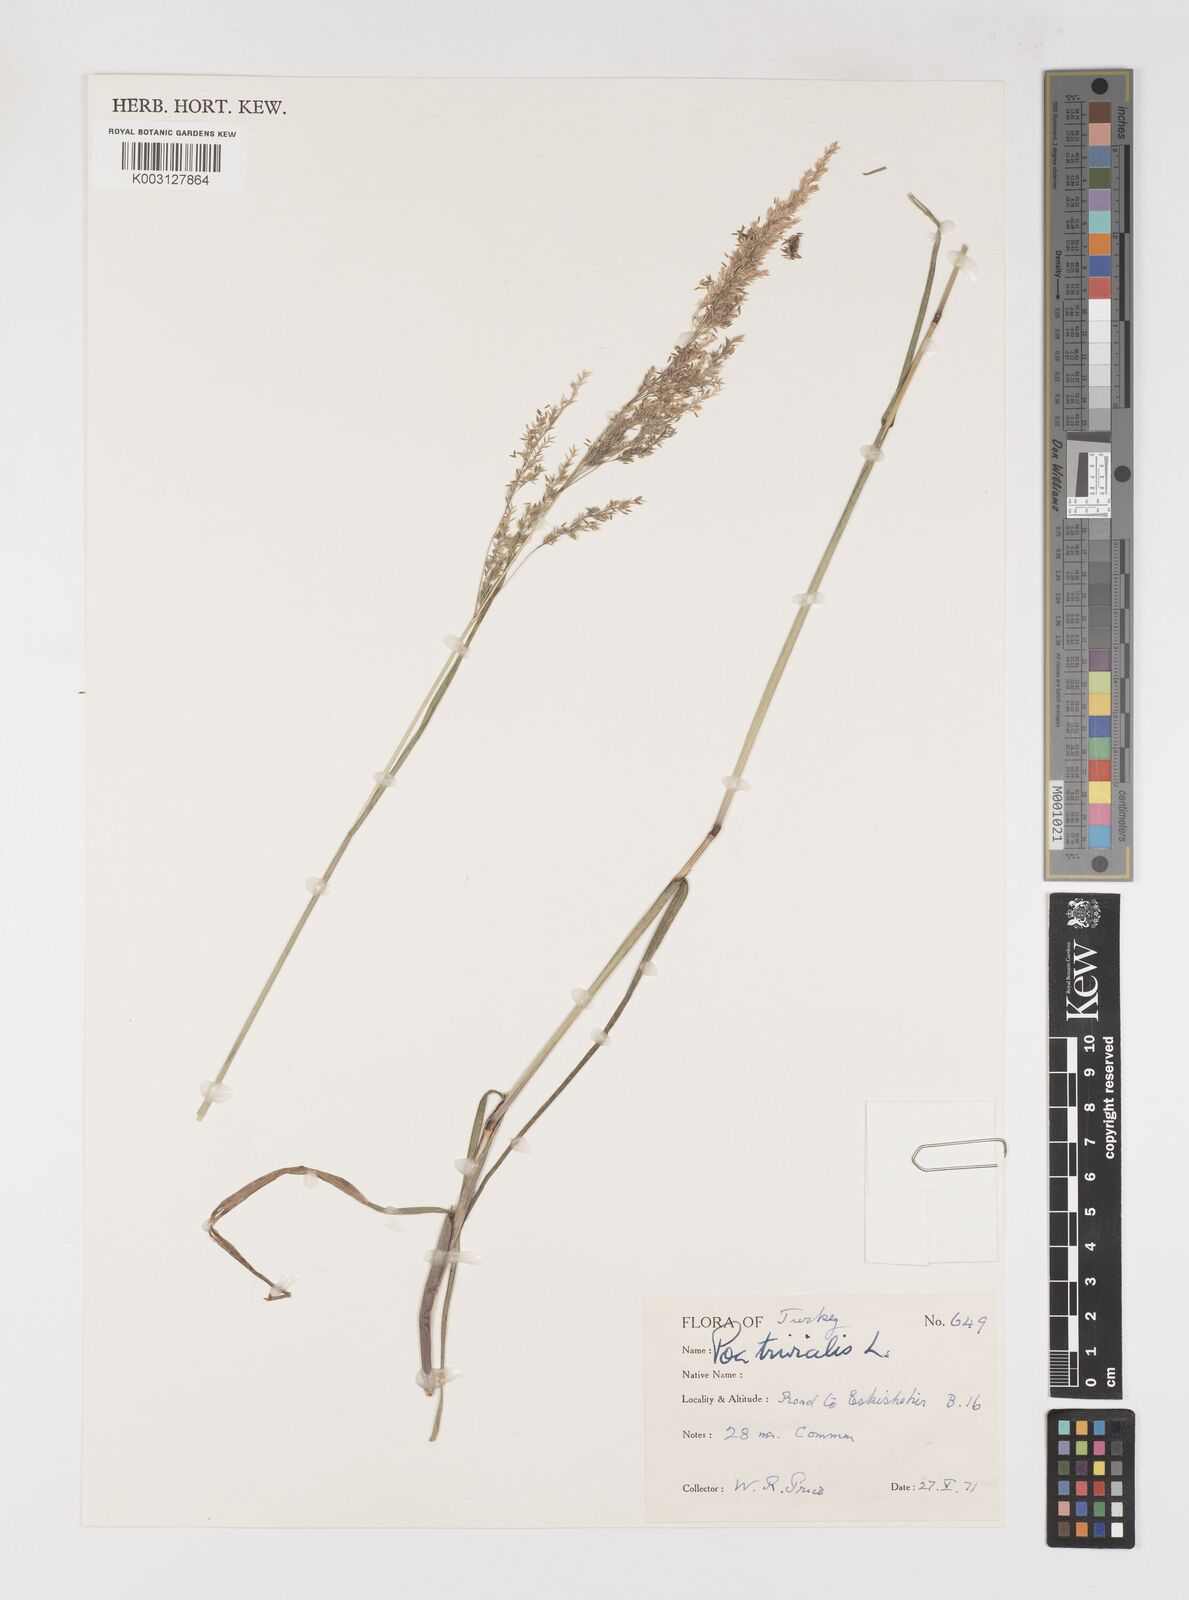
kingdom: Plantae
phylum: Tracheophyta
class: Liliopsida
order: Poales
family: Poaceae
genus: Poa
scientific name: Poa trivialis
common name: Rough bluegrass
